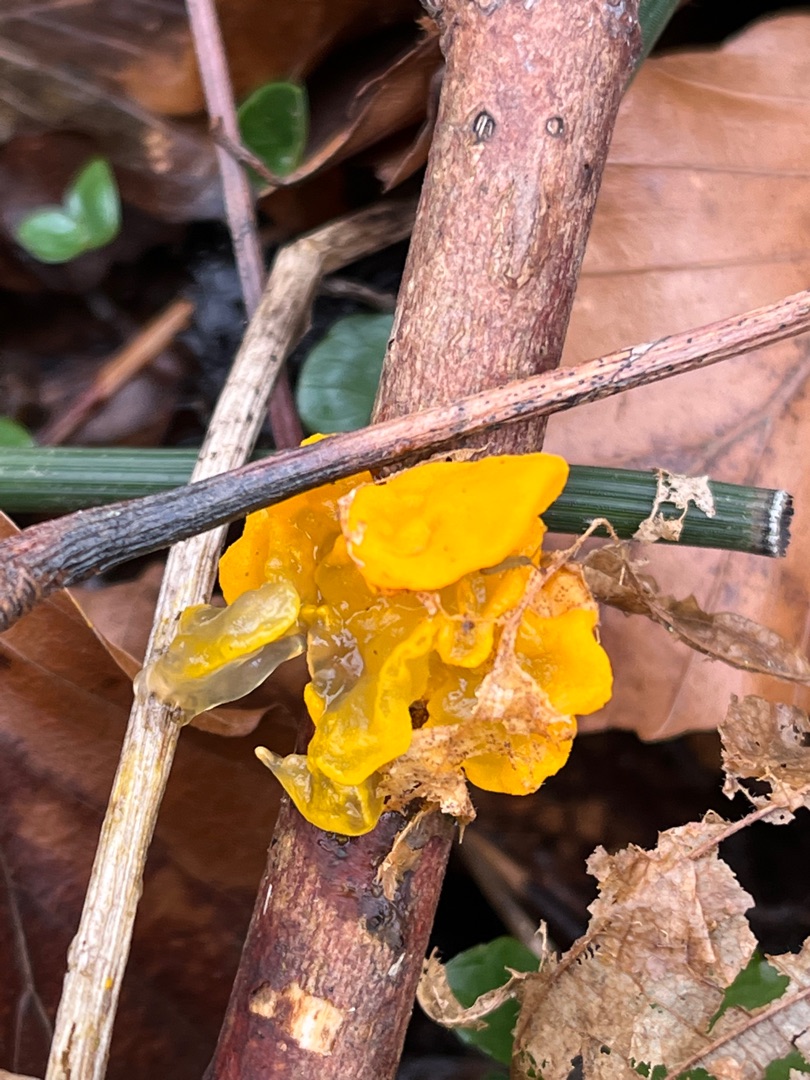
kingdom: Fungi
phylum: Basidiomycota
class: Tremellomycetes
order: Tremellales
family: Tremellaceae
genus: Tremella
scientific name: Tremella mesenterica
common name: Gul bævresvamp
